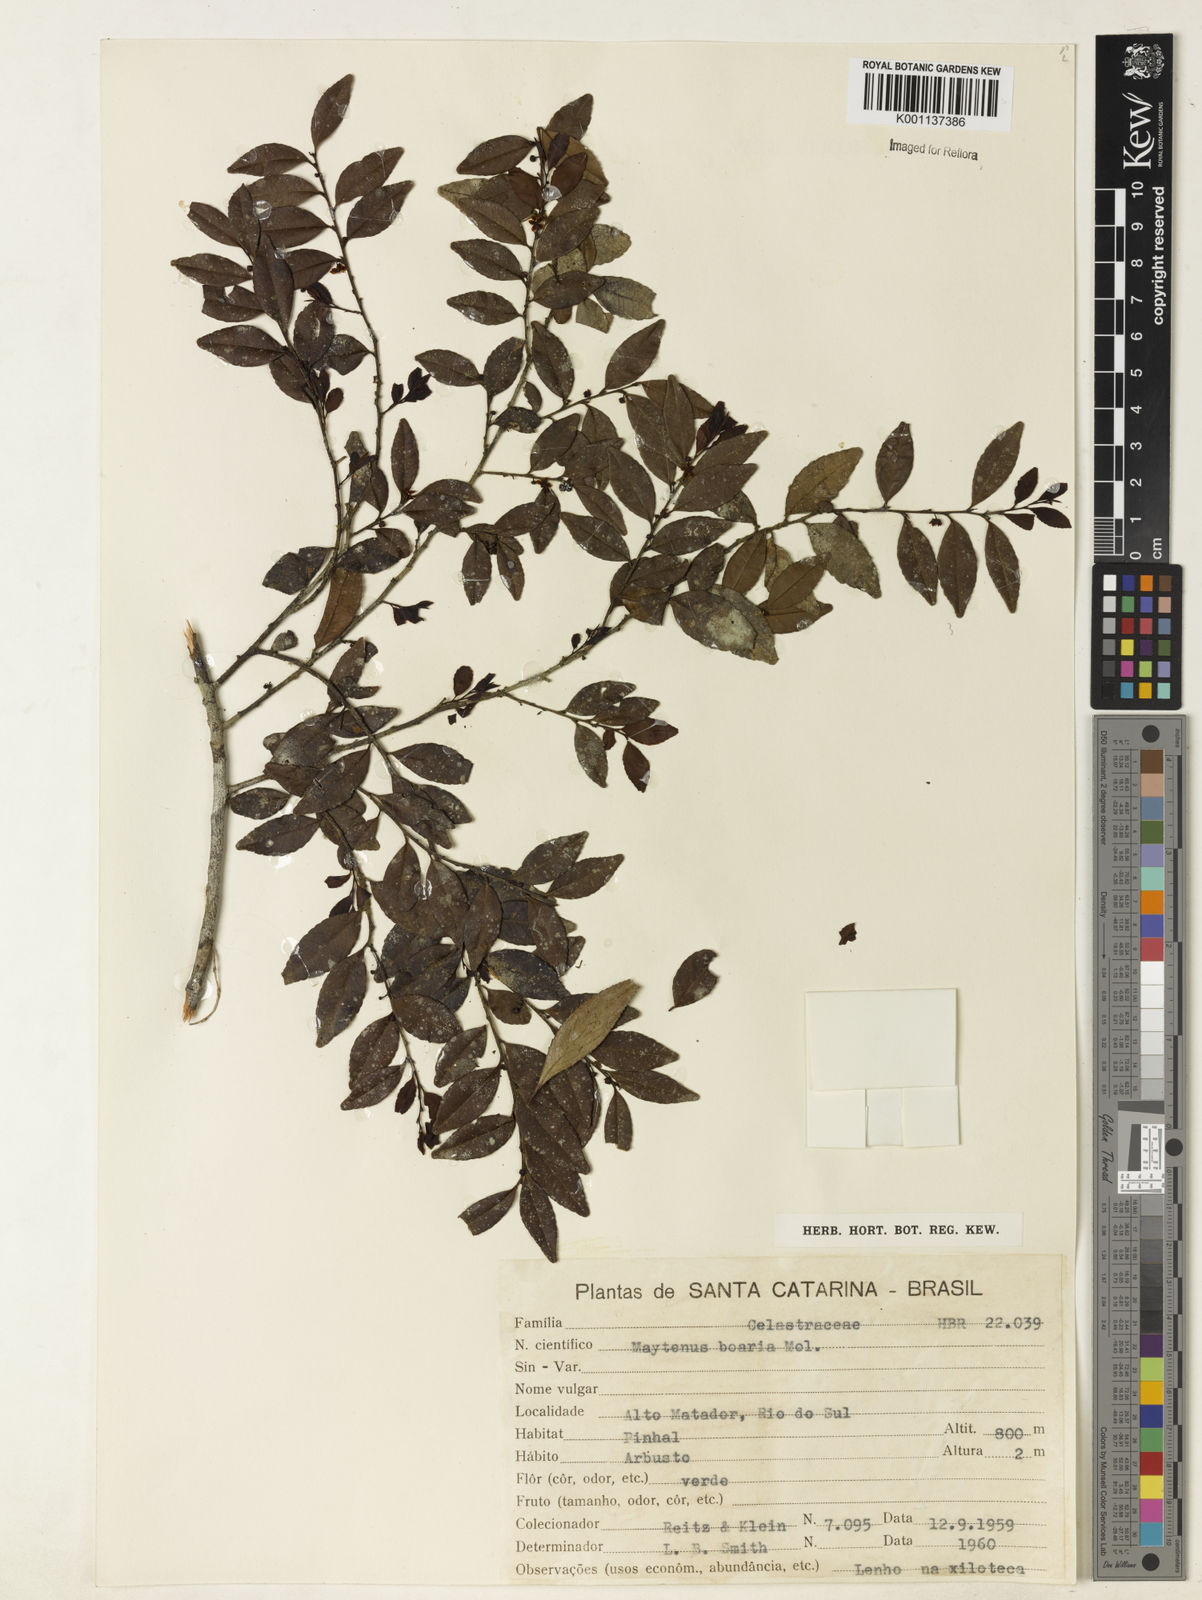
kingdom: Plantae
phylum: Tracheophyta
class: Magnoliopsida
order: Celastrales
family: Celastraceae
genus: Maytenus
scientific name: Maytenus boaria
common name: Mayten
